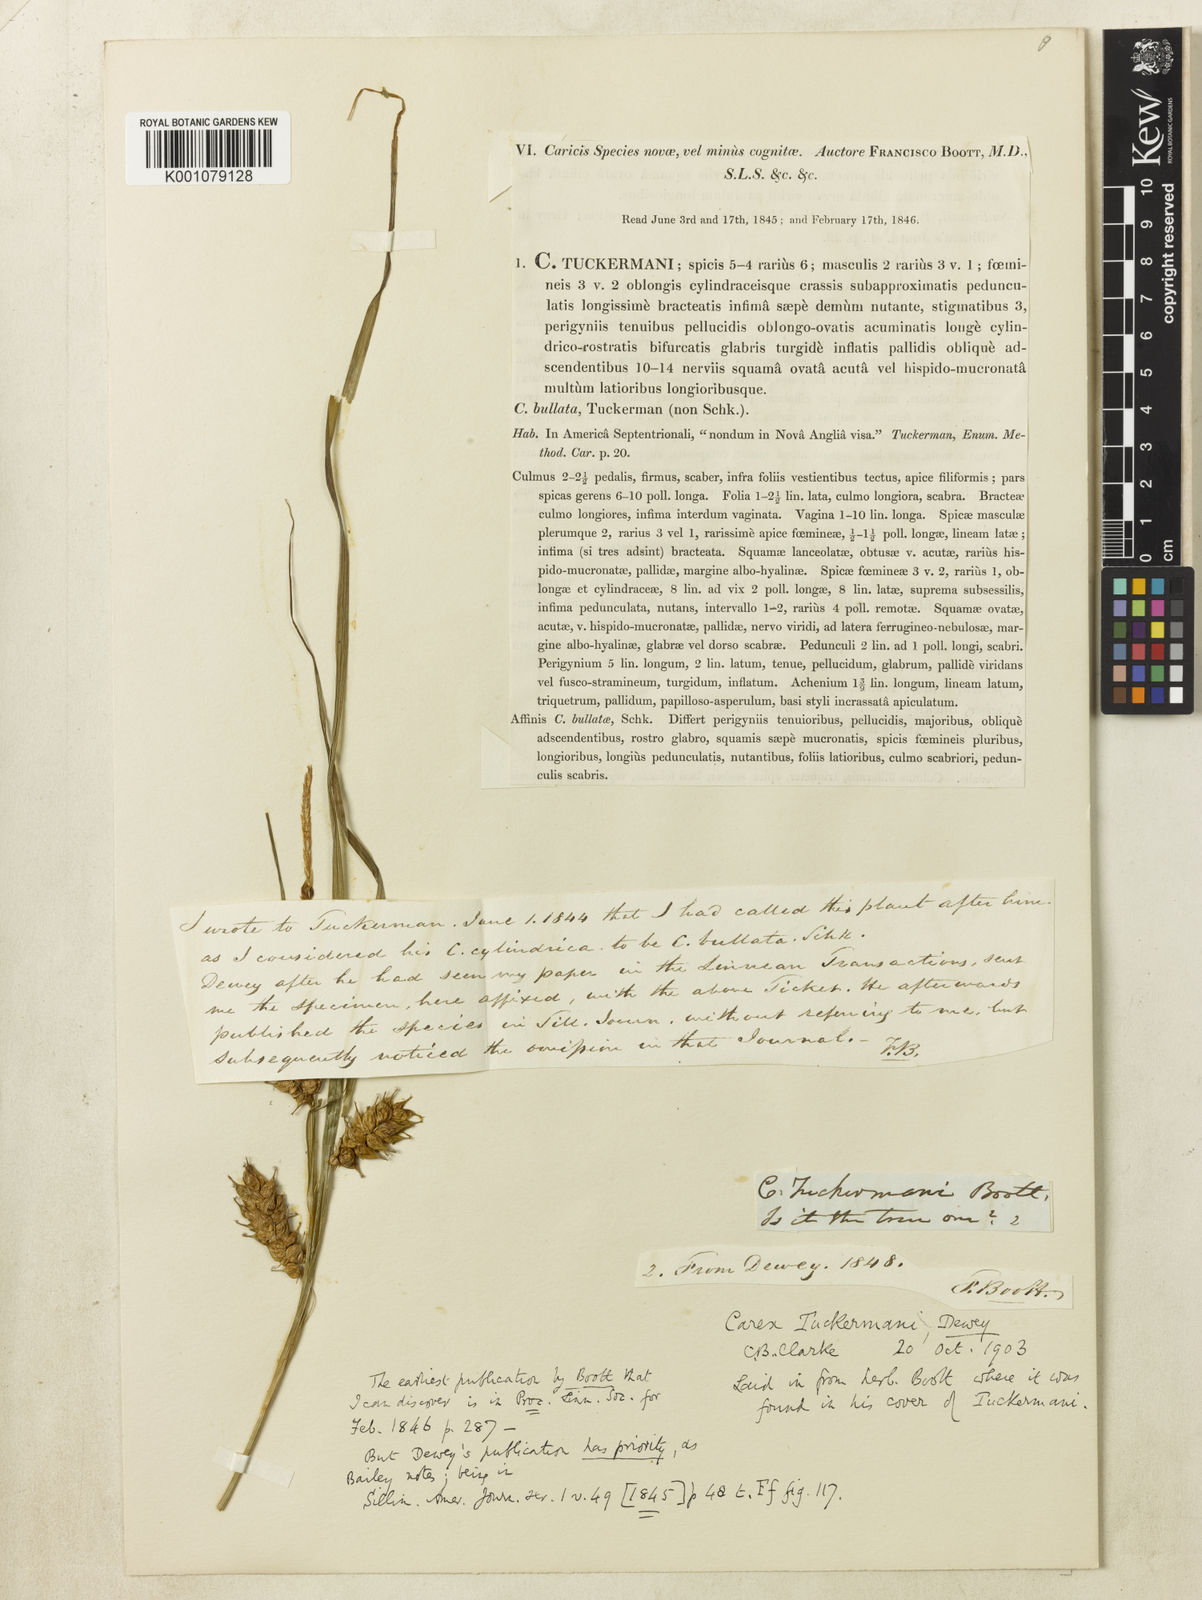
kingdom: Plantae
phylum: Tracheophyta
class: Liliopsida
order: Poales
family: Cyperaceae
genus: Carex
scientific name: Carex tuckermanii
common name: Tuckerman's sedge
